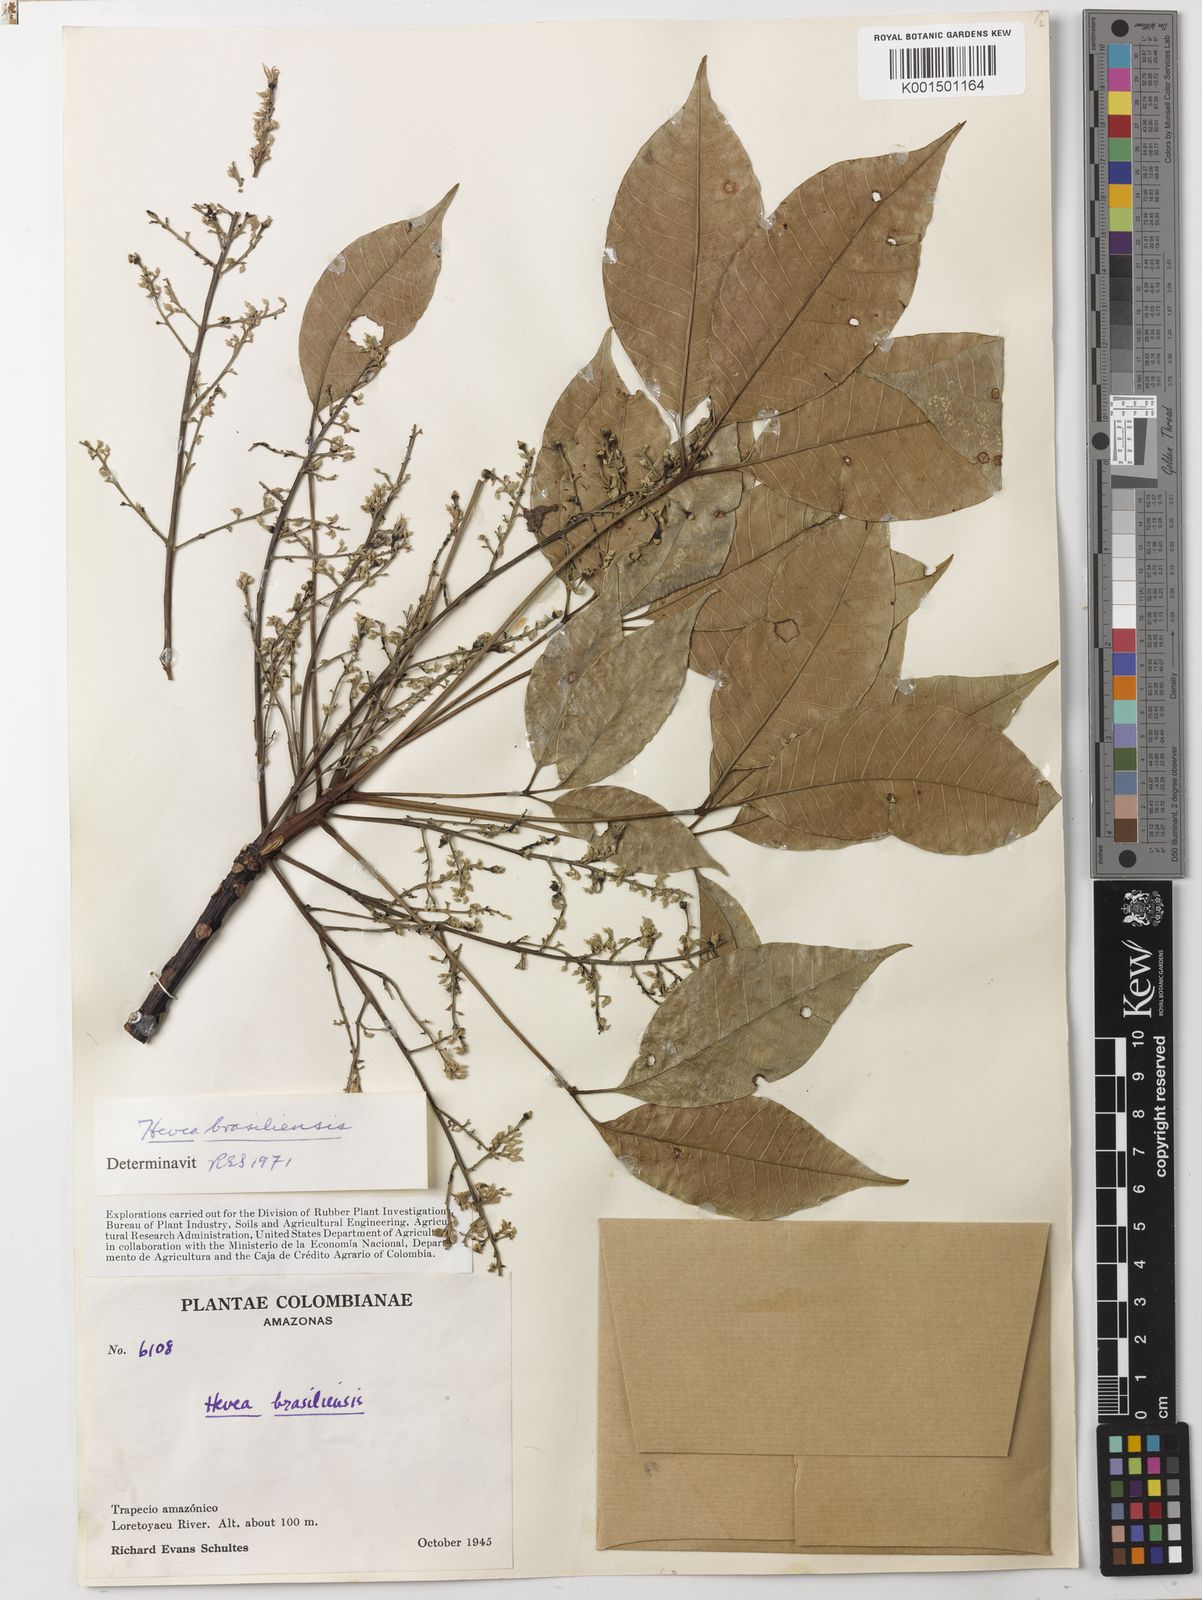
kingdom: Plantae
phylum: Tracheophyta
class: Magnoliopsida
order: Malpighiales
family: Euphorbiaceae
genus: Hevea
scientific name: Hevea brasiliensis
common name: Natural rubber
